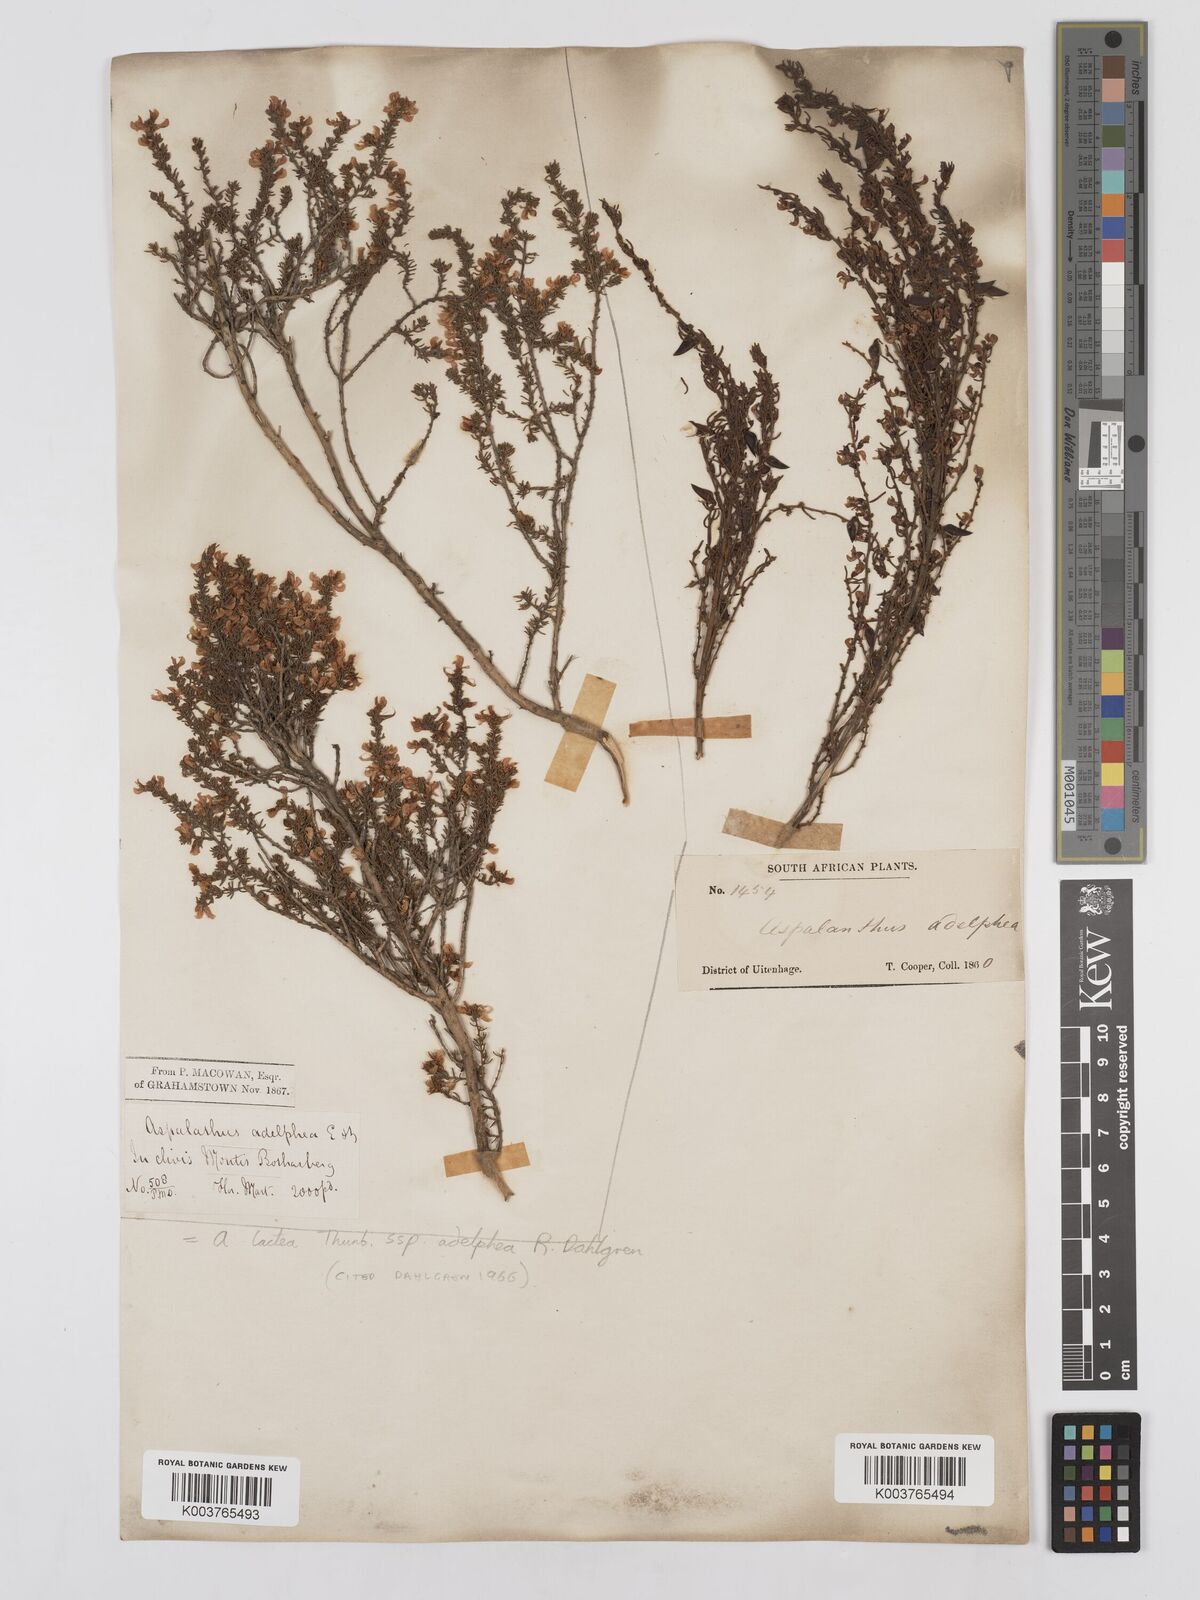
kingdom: Plantae
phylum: Tracheophyta
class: Magnoliopsida
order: Fabales
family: Fabaceae
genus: Aspalathus
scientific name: Aspalathus lactea
